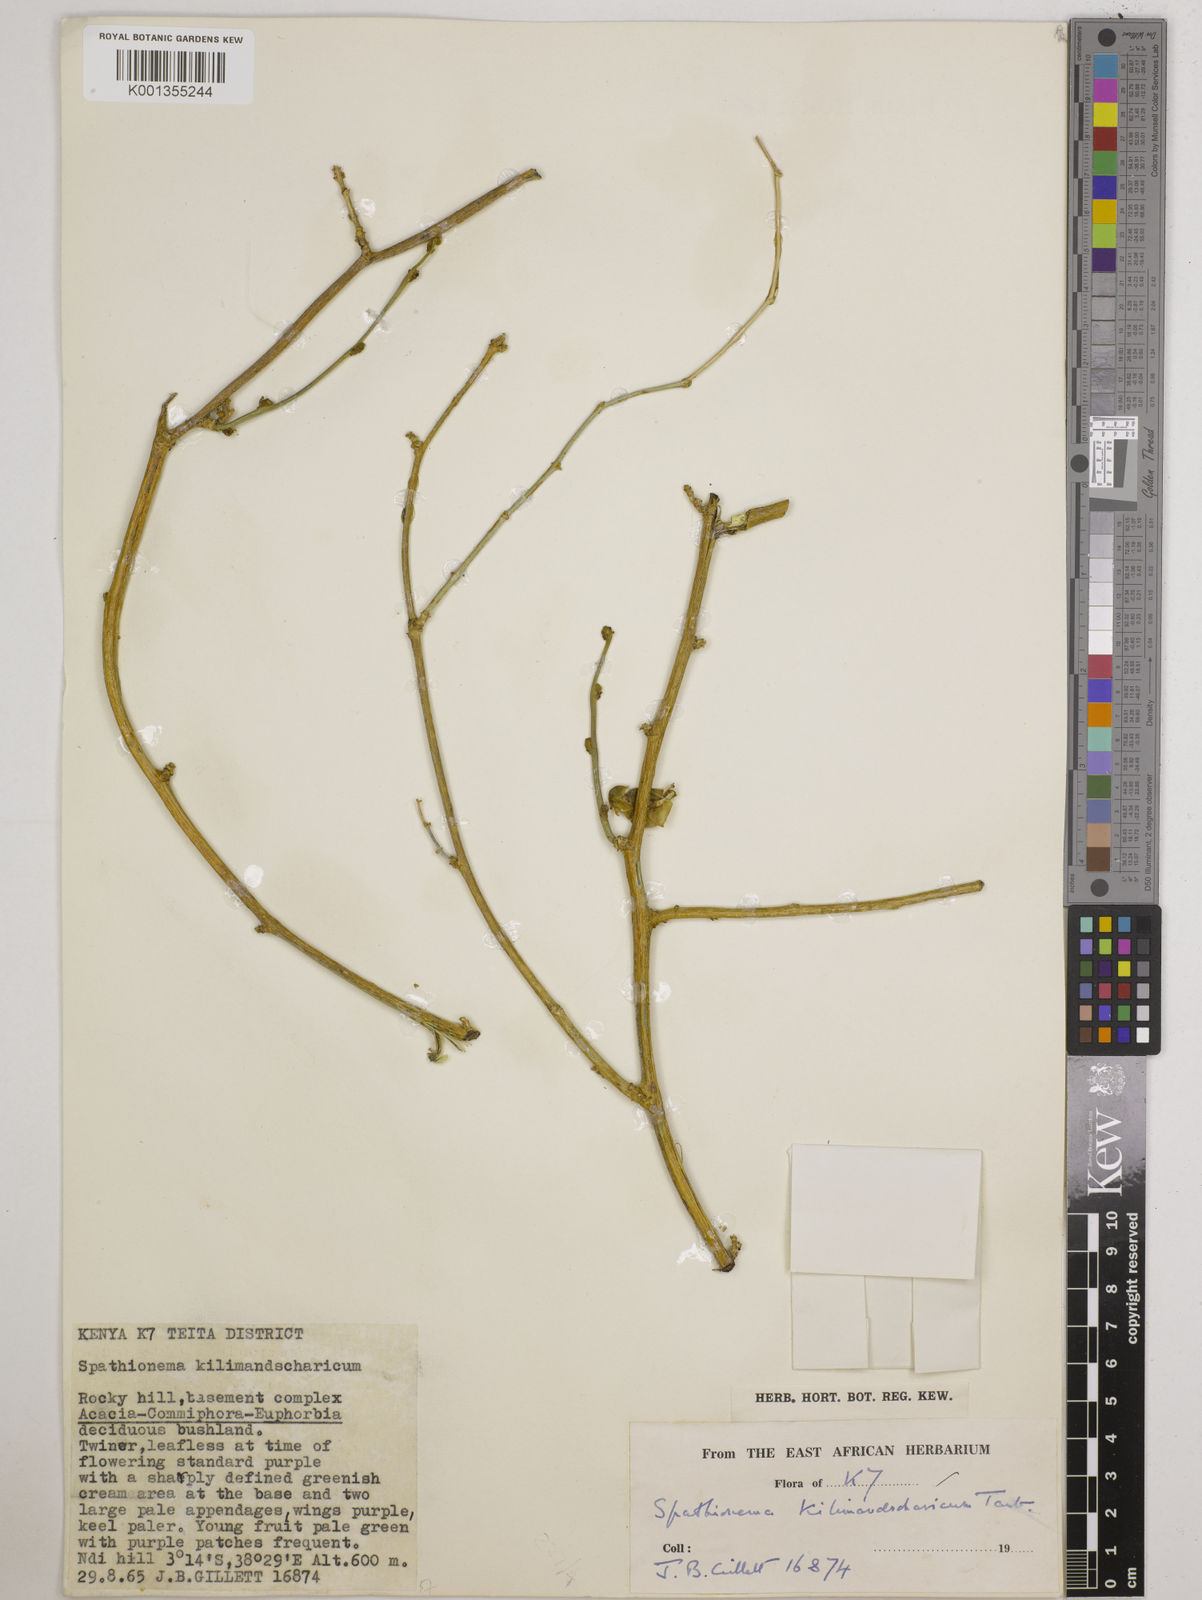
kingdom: Plantae
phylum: Tracheophyta
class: Magnoliopsida
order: Fabales
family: Fabaceae
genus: Spathionema
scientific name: Spathionema kilimandscharicum
